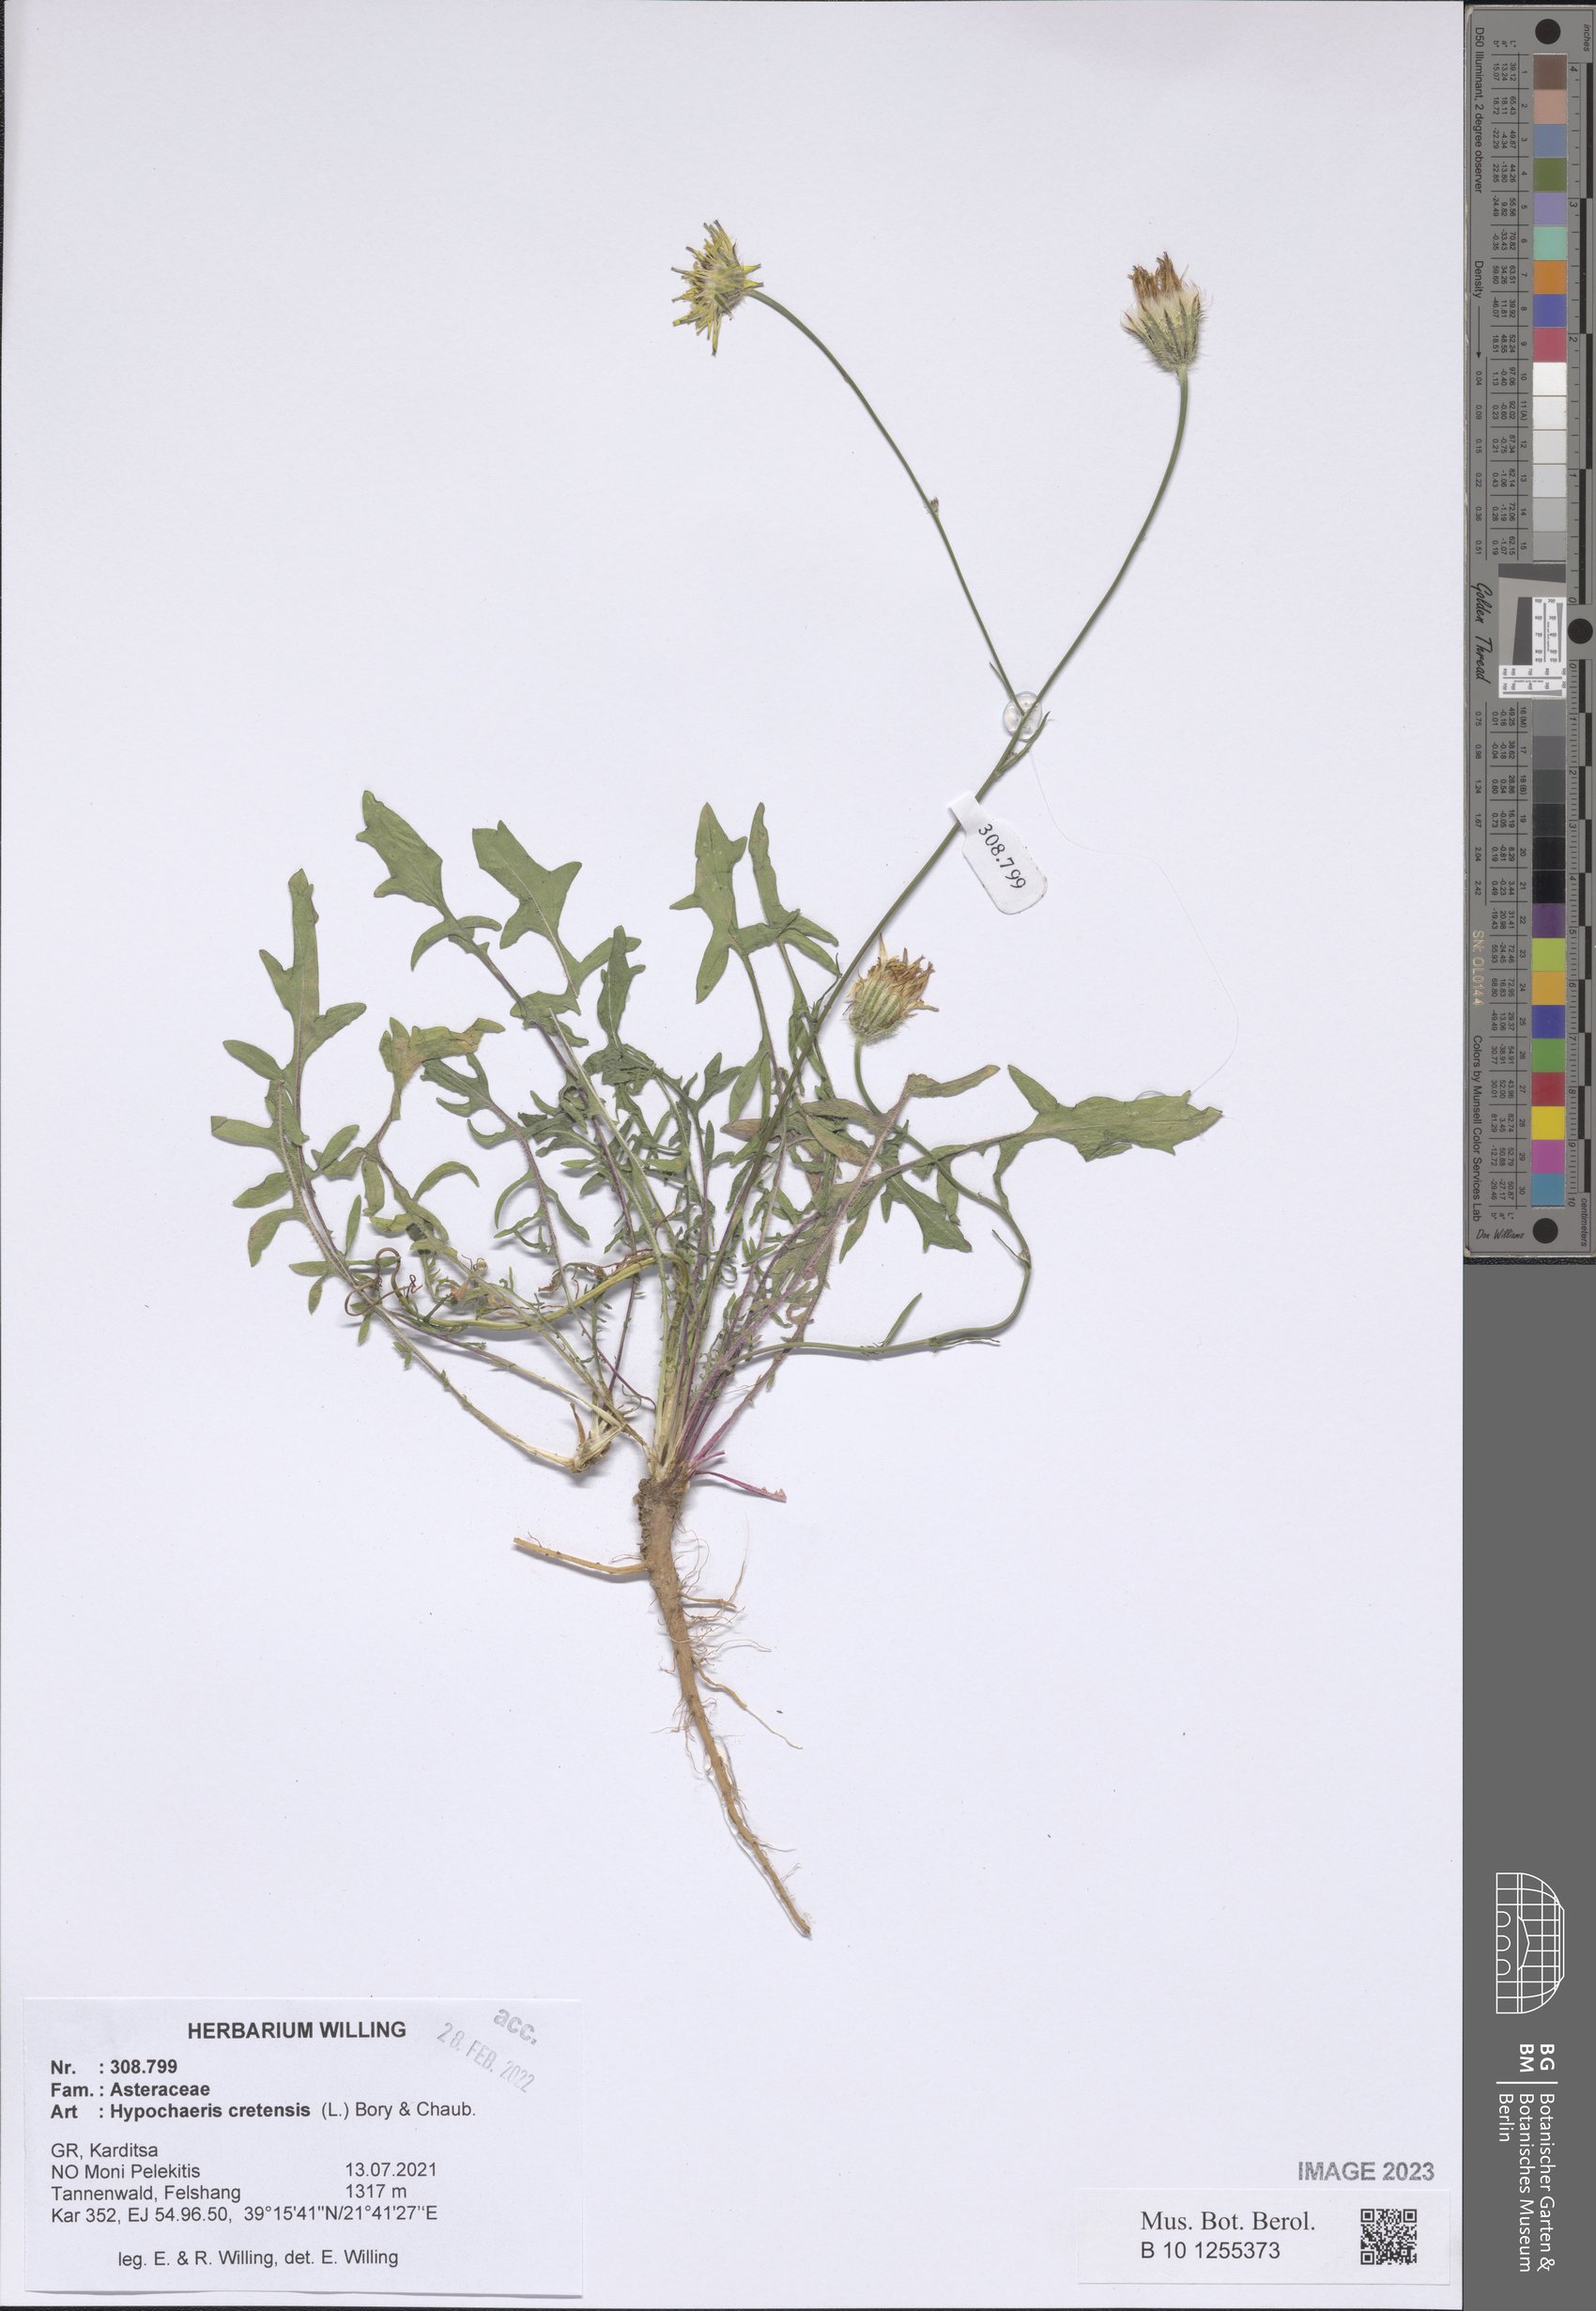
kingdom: Plantae
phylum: Tracheophyta
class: Magnoliopsida
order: Asterales
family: Asteraceae
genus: Hypochaeris
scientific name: Hypochaeris cretensis
